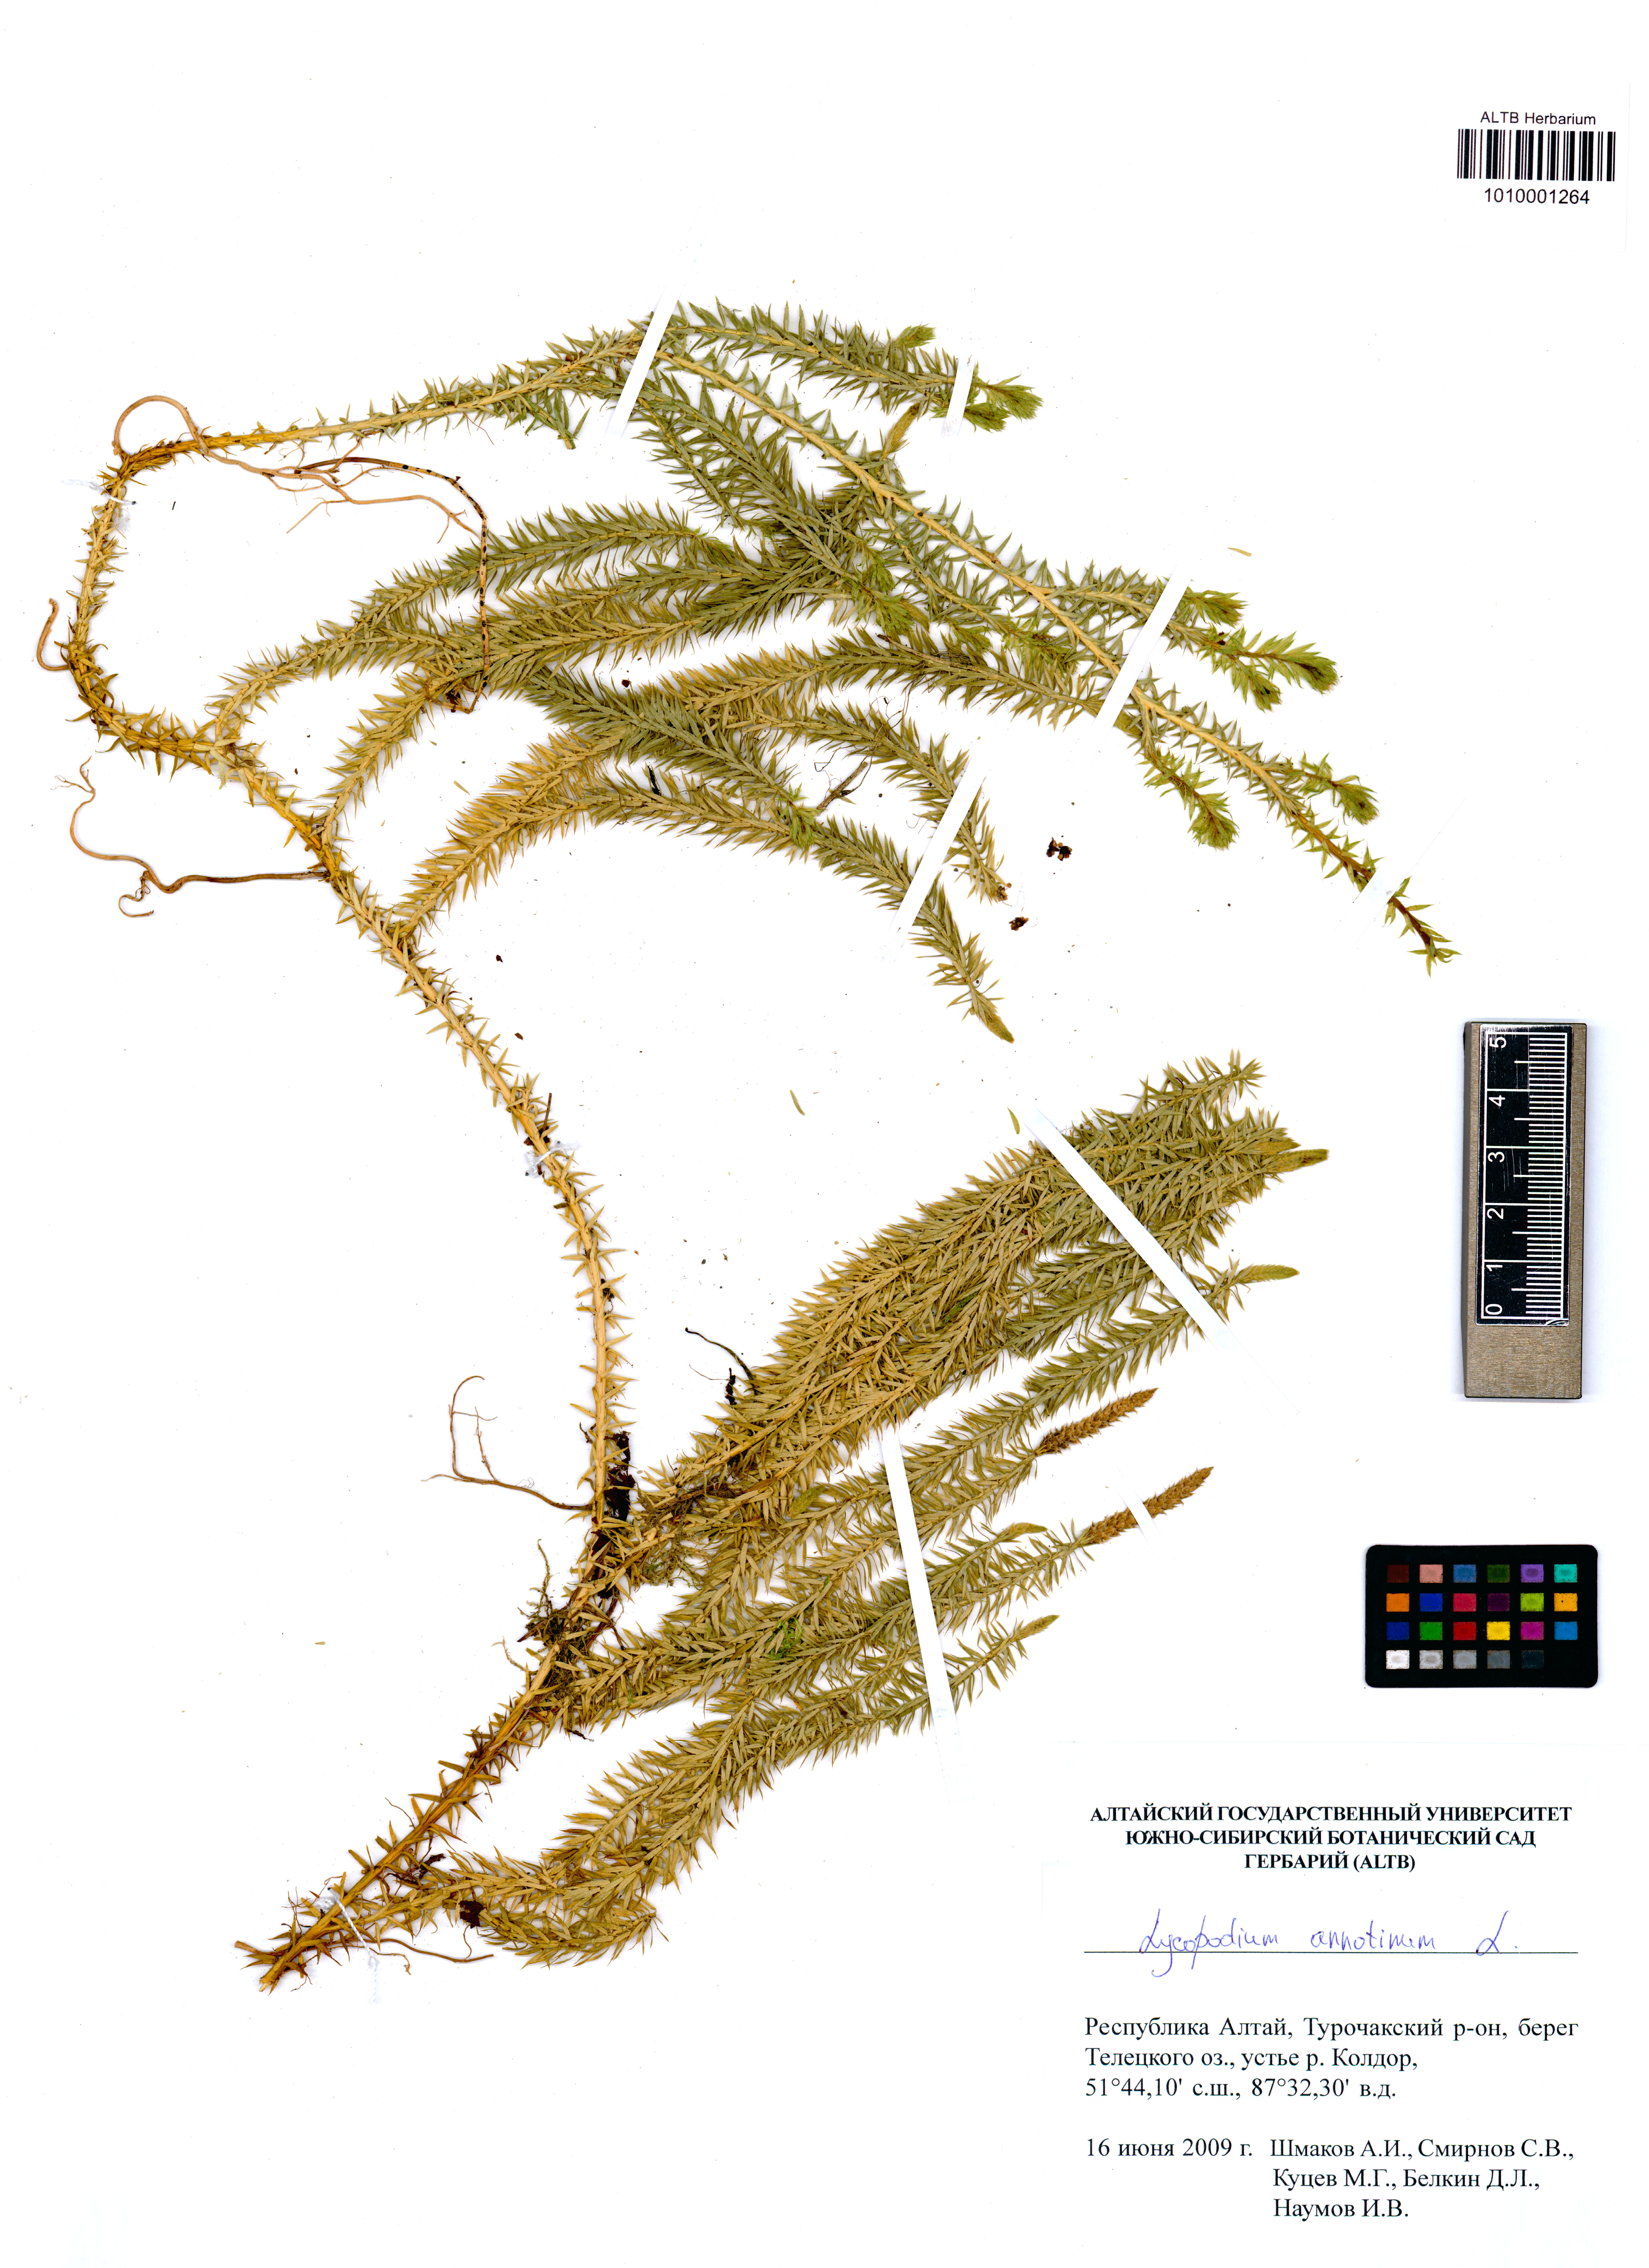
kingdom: Plantae
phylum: Tracheophyta
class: Lycopodiopsida
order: Lycopodiales
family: Lycopodiaceae
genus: Spinulum
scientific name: Spinulum annotinum
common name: Interrupted club-moss
